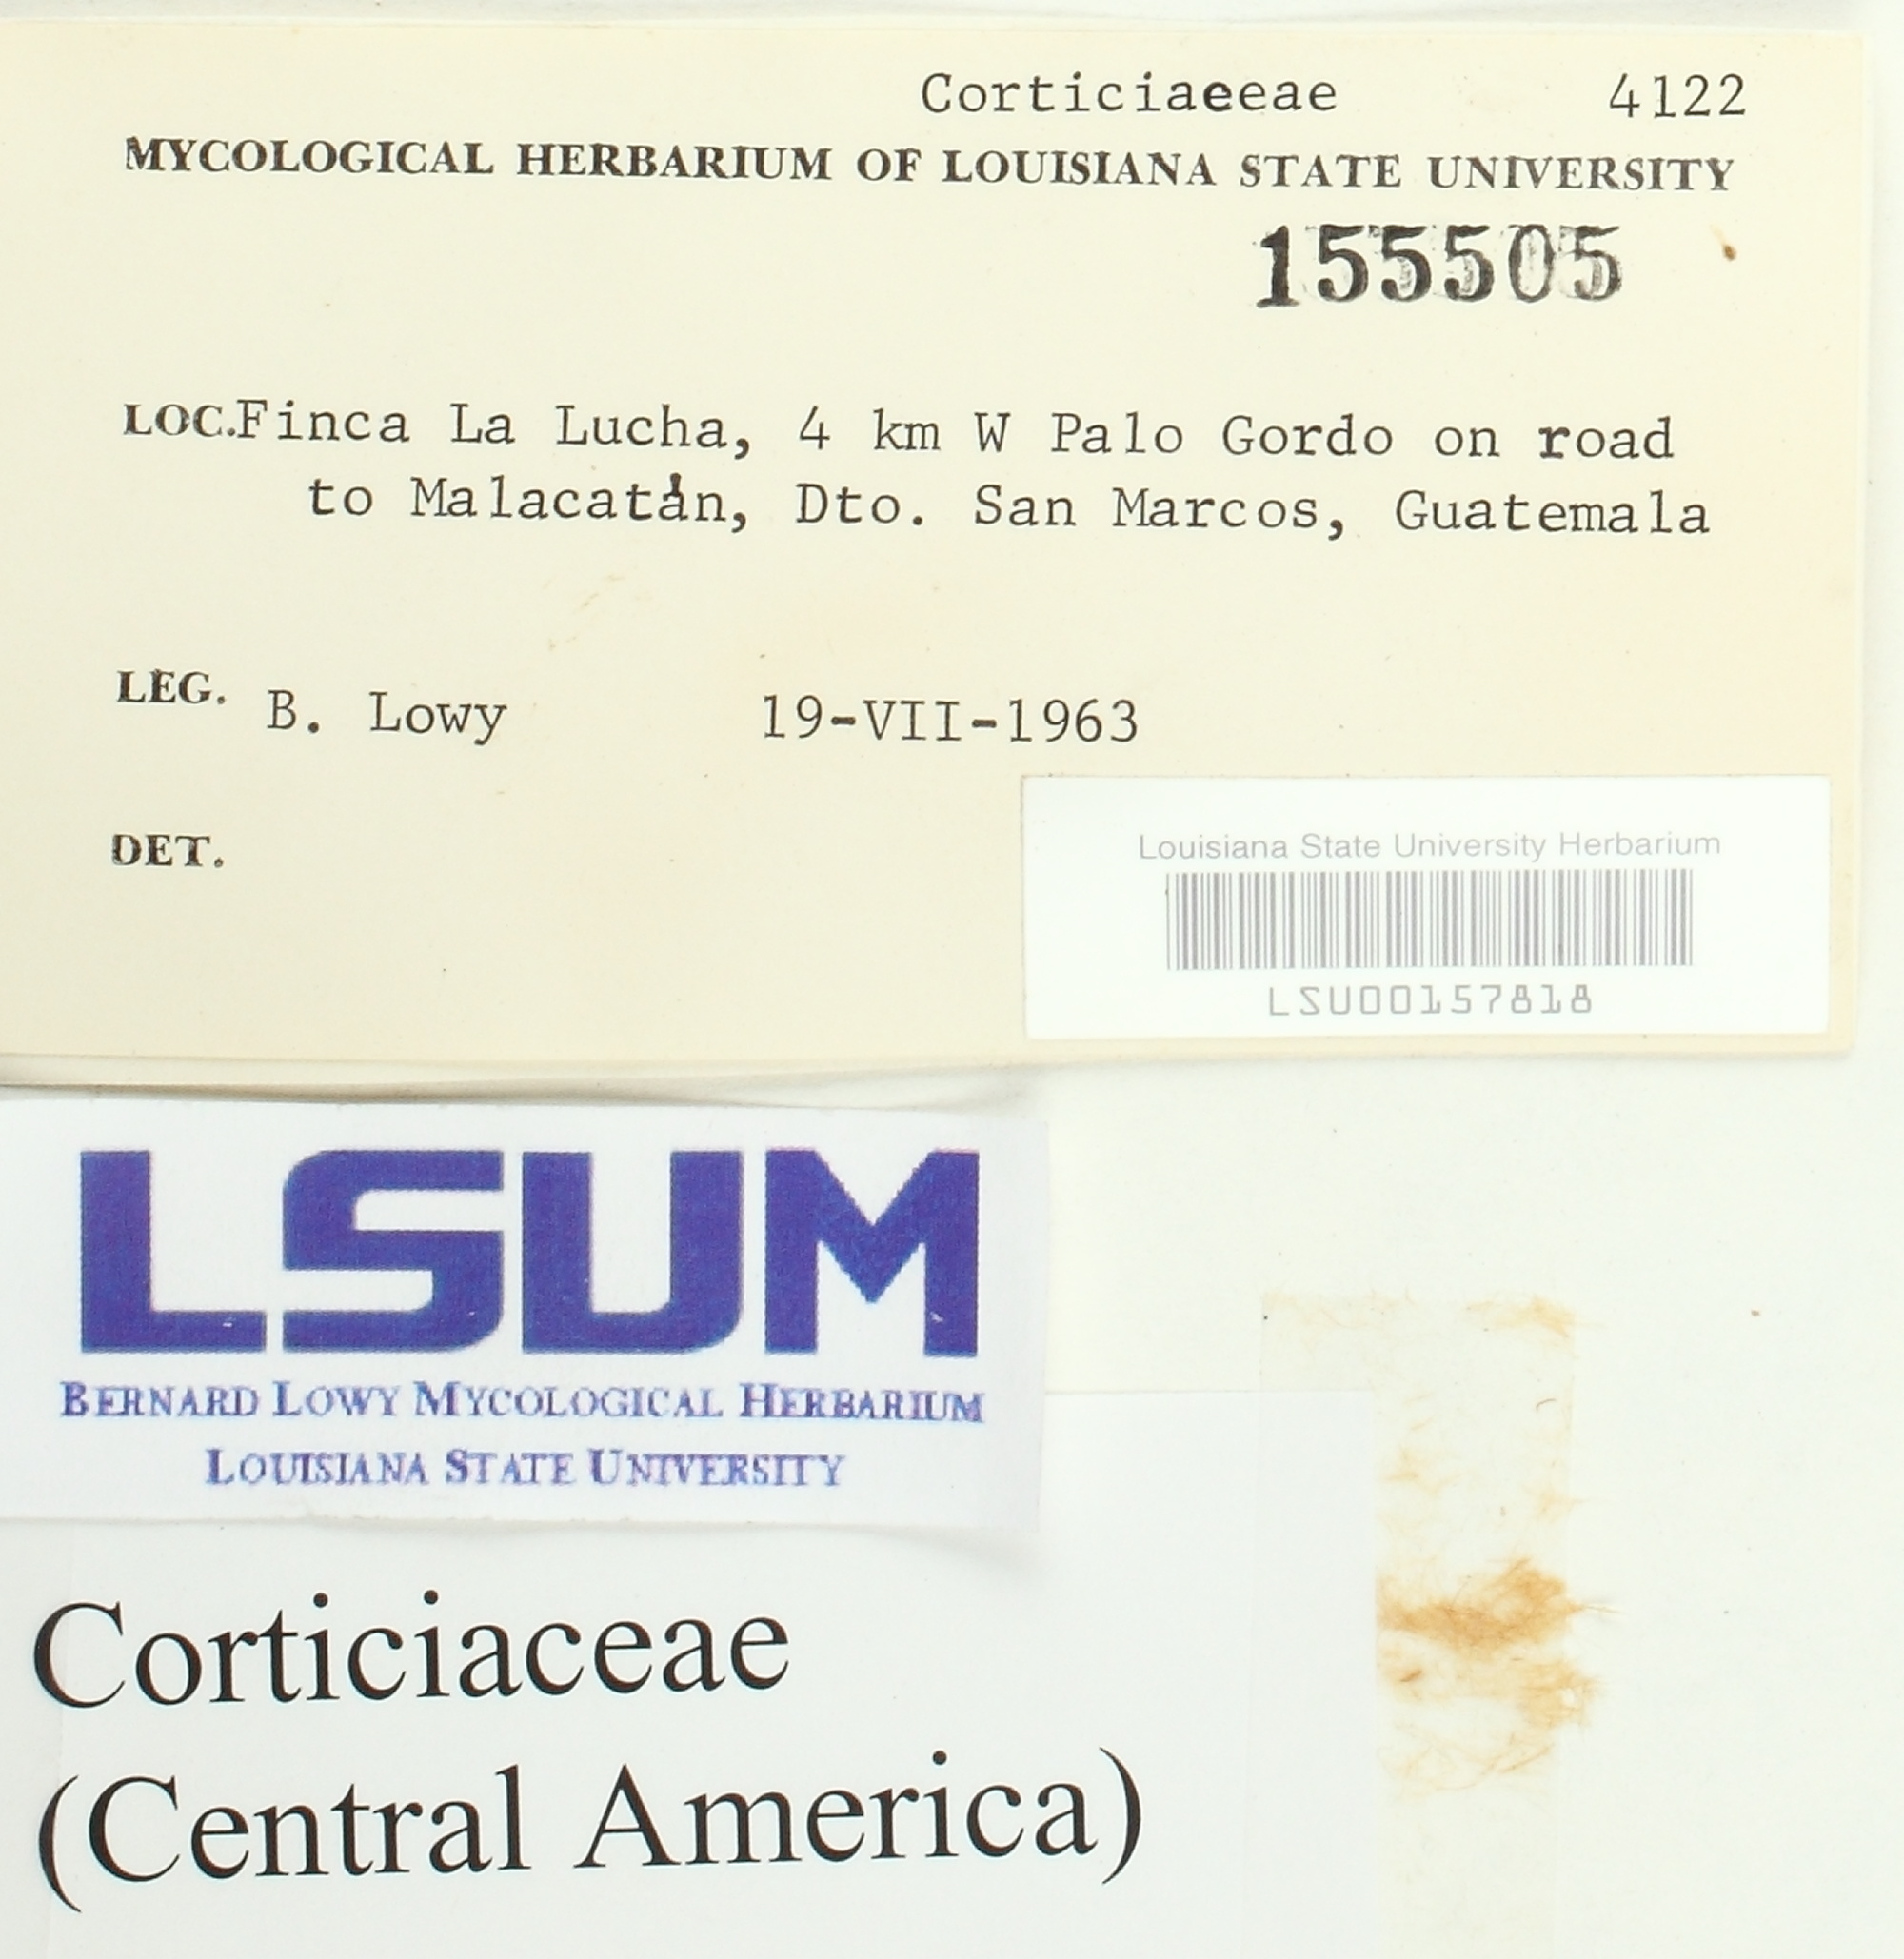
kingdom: Fungi
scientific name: Fungi
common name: Fungi
